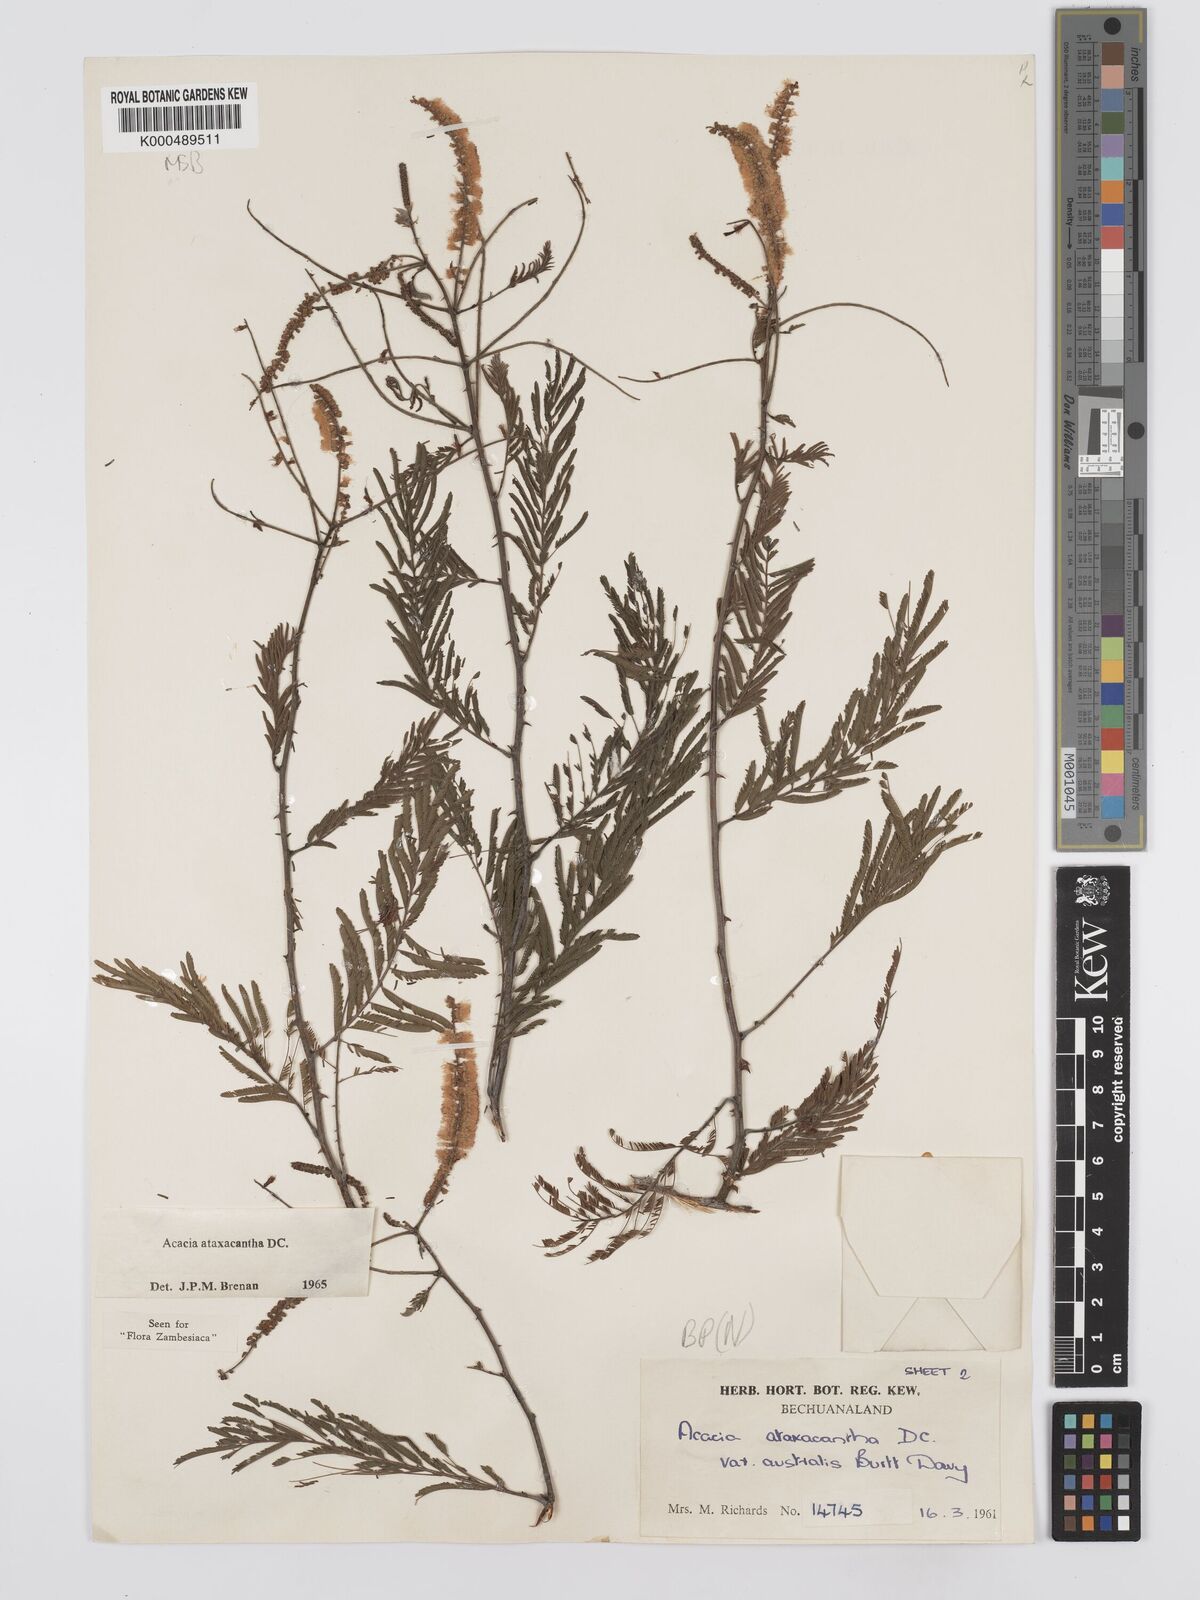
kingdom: Plantae
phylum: Tracheophyta
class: Magnoliopsida
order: Fabales
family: Fabaceae
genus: Senegalia
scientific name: Senegalia ataxacantha
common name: Flame acacia
